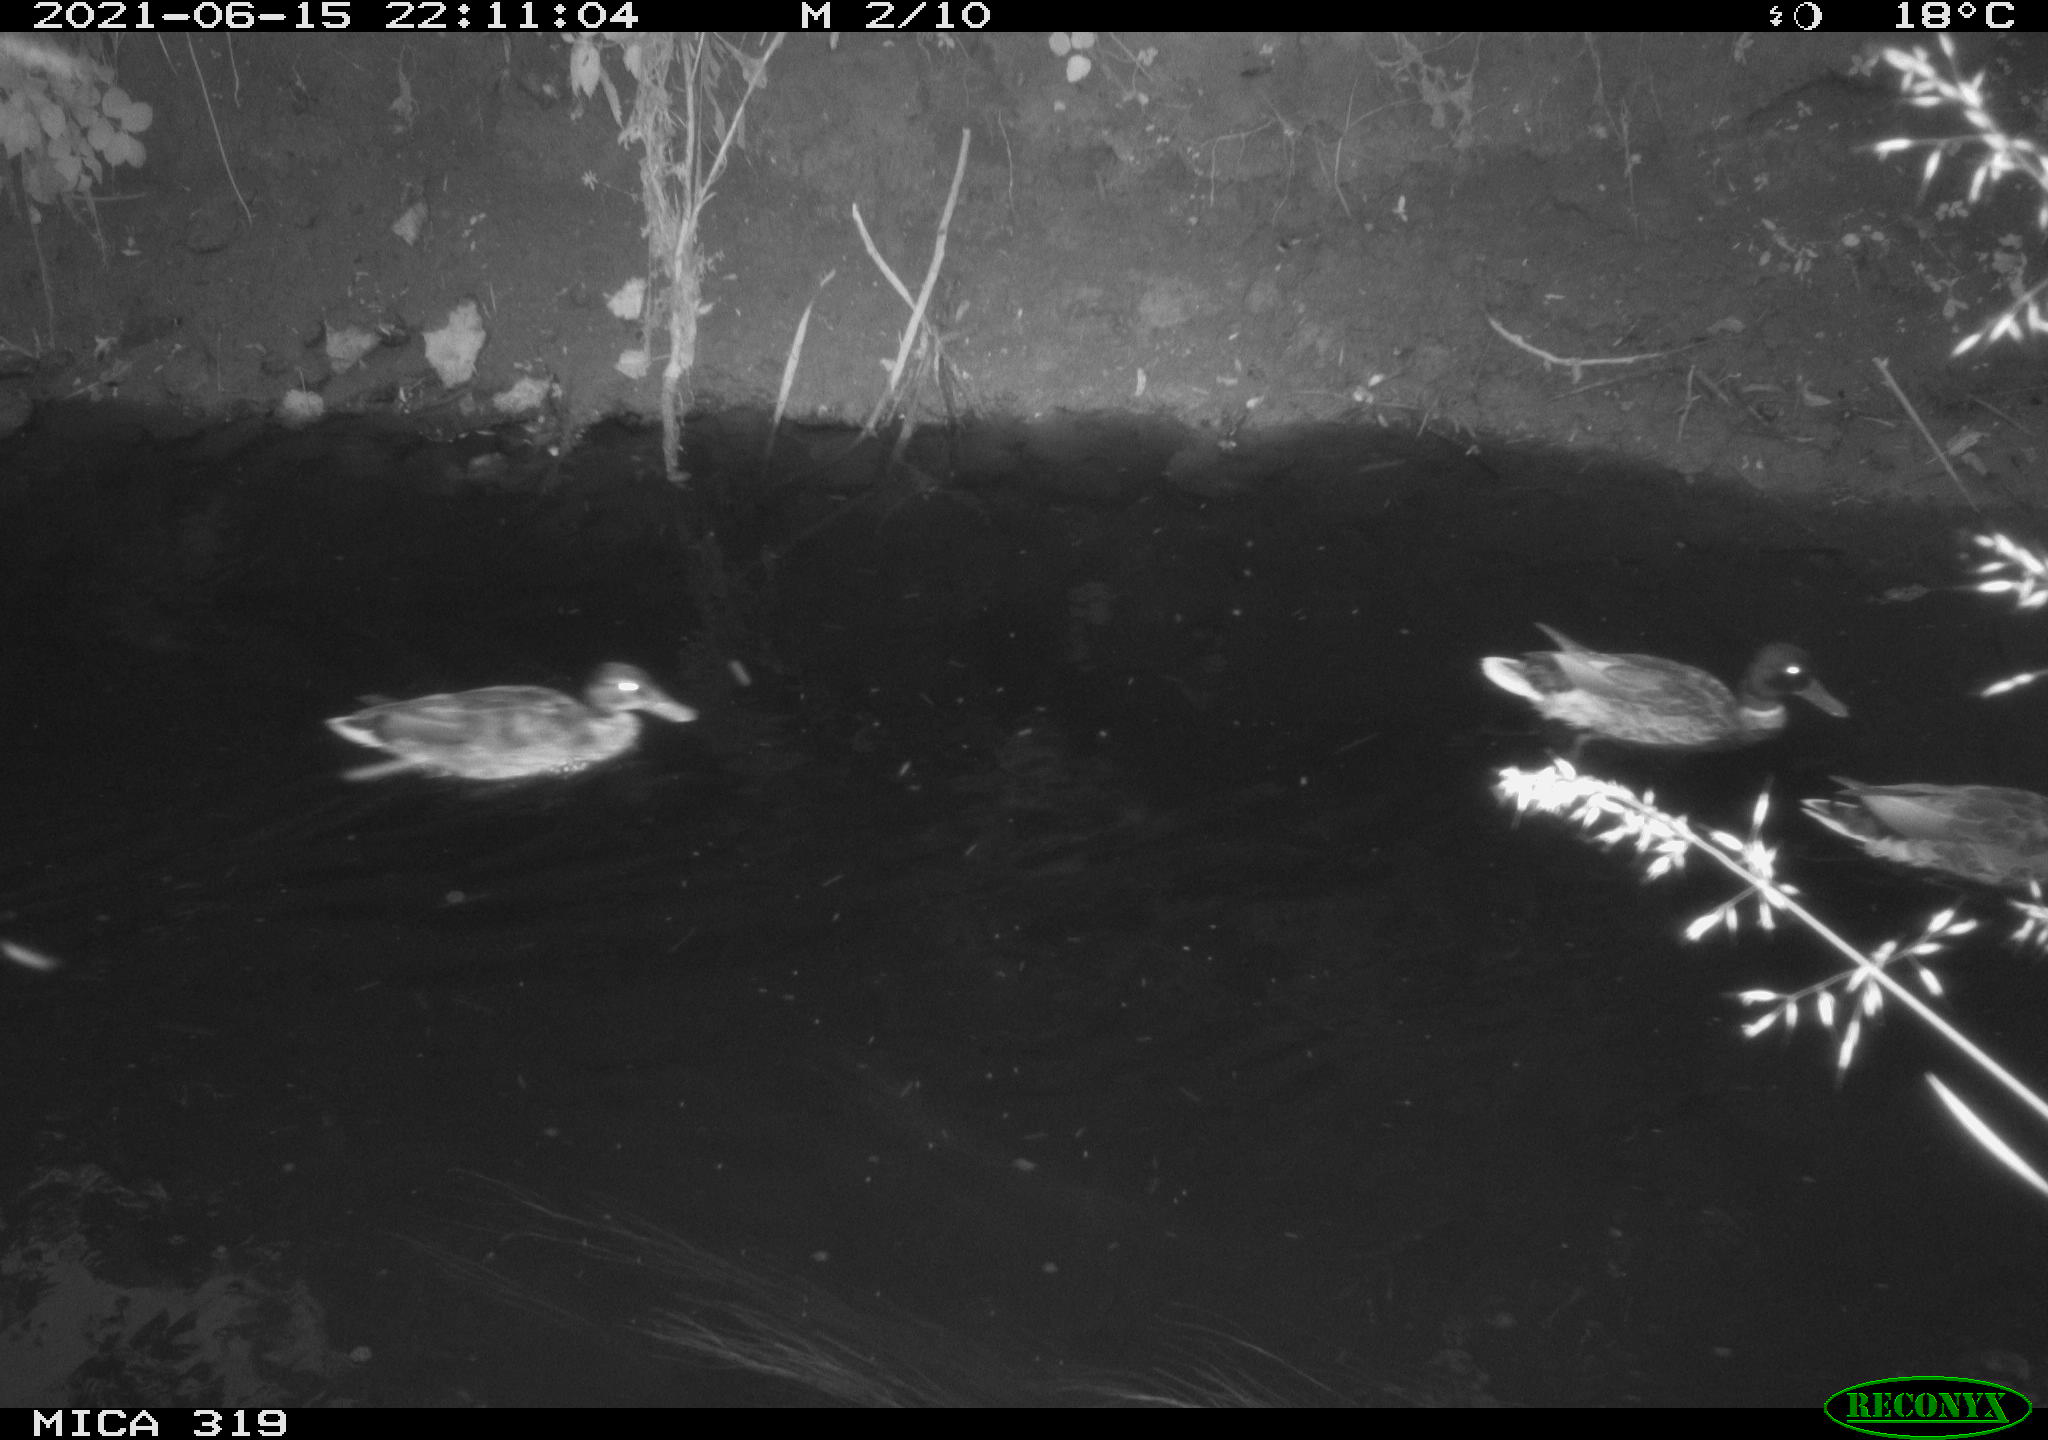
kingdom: Animalia
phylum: Chordata
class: Aves
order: Anseriformes
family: Anatidae
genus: Anas
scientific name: Anas platyrhynchos
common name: Mallard
